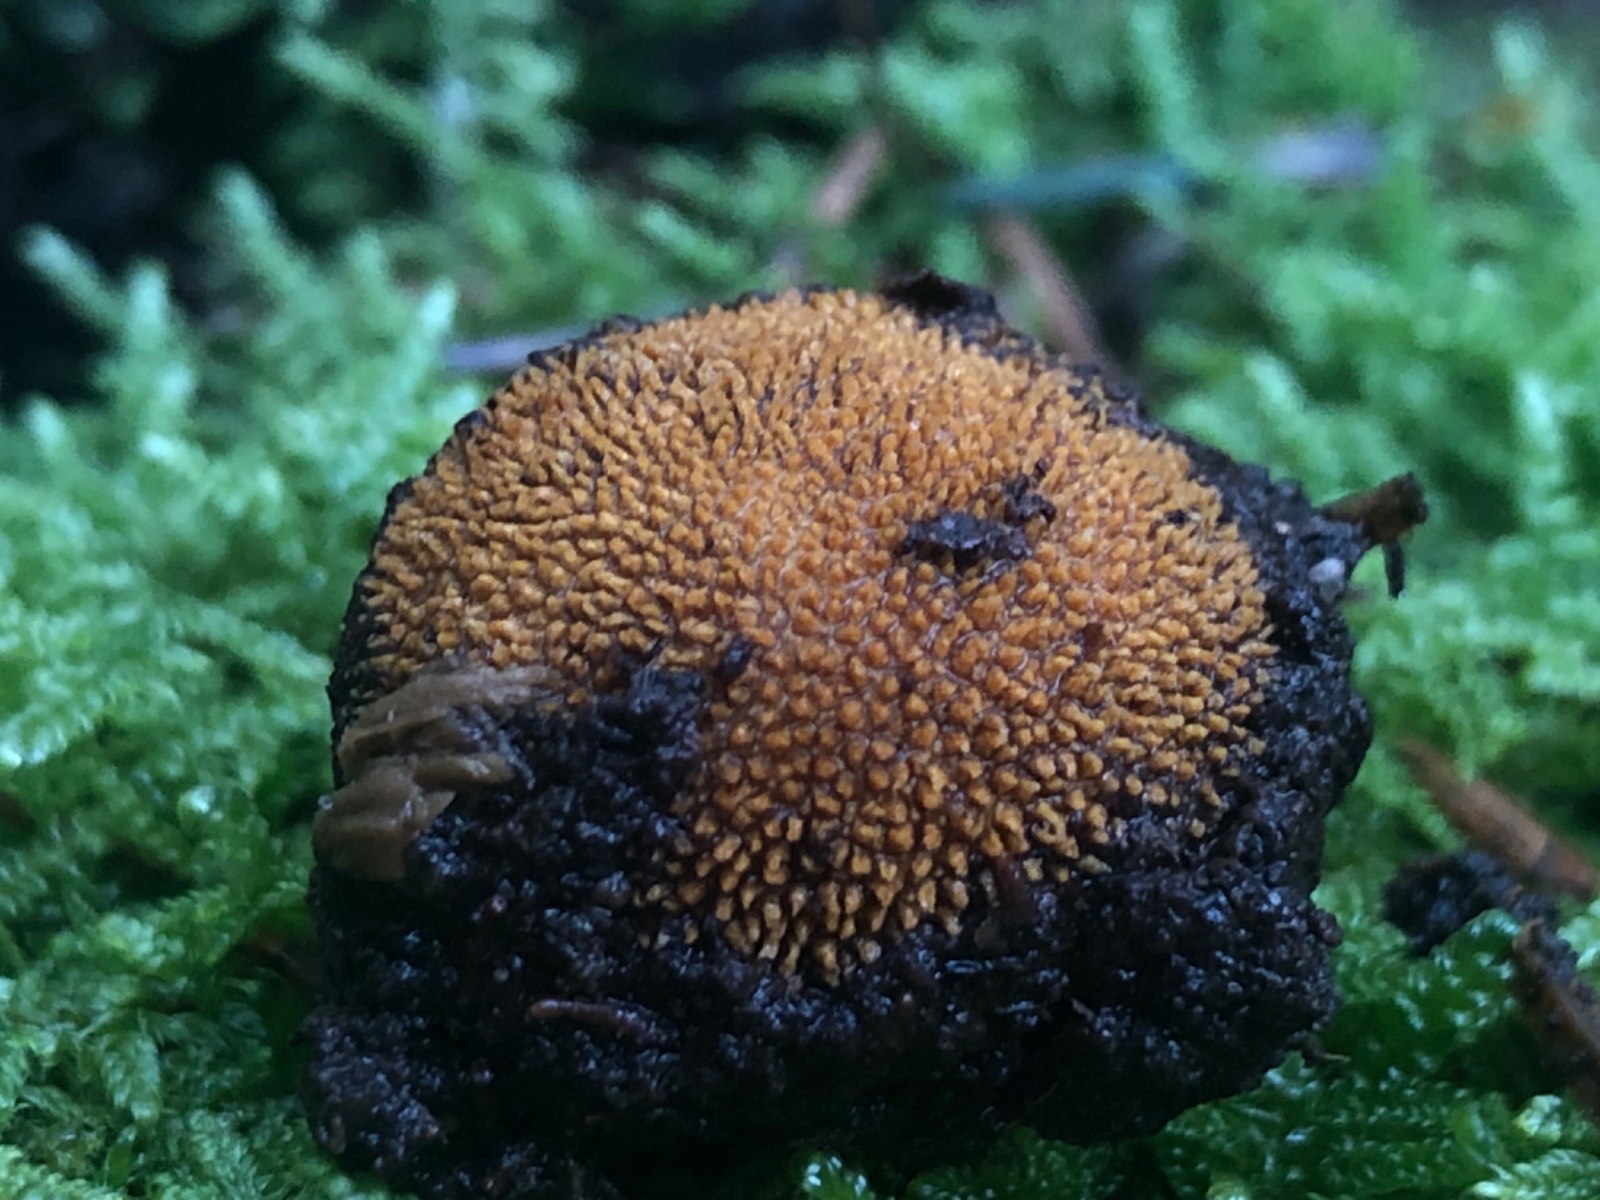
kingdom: Fungi
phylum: Ascomycota
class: Eurotiomycetes
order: Eurotiales
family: Elaphomycetaceae
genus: Elaphomyces
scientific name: Elaphomyces
